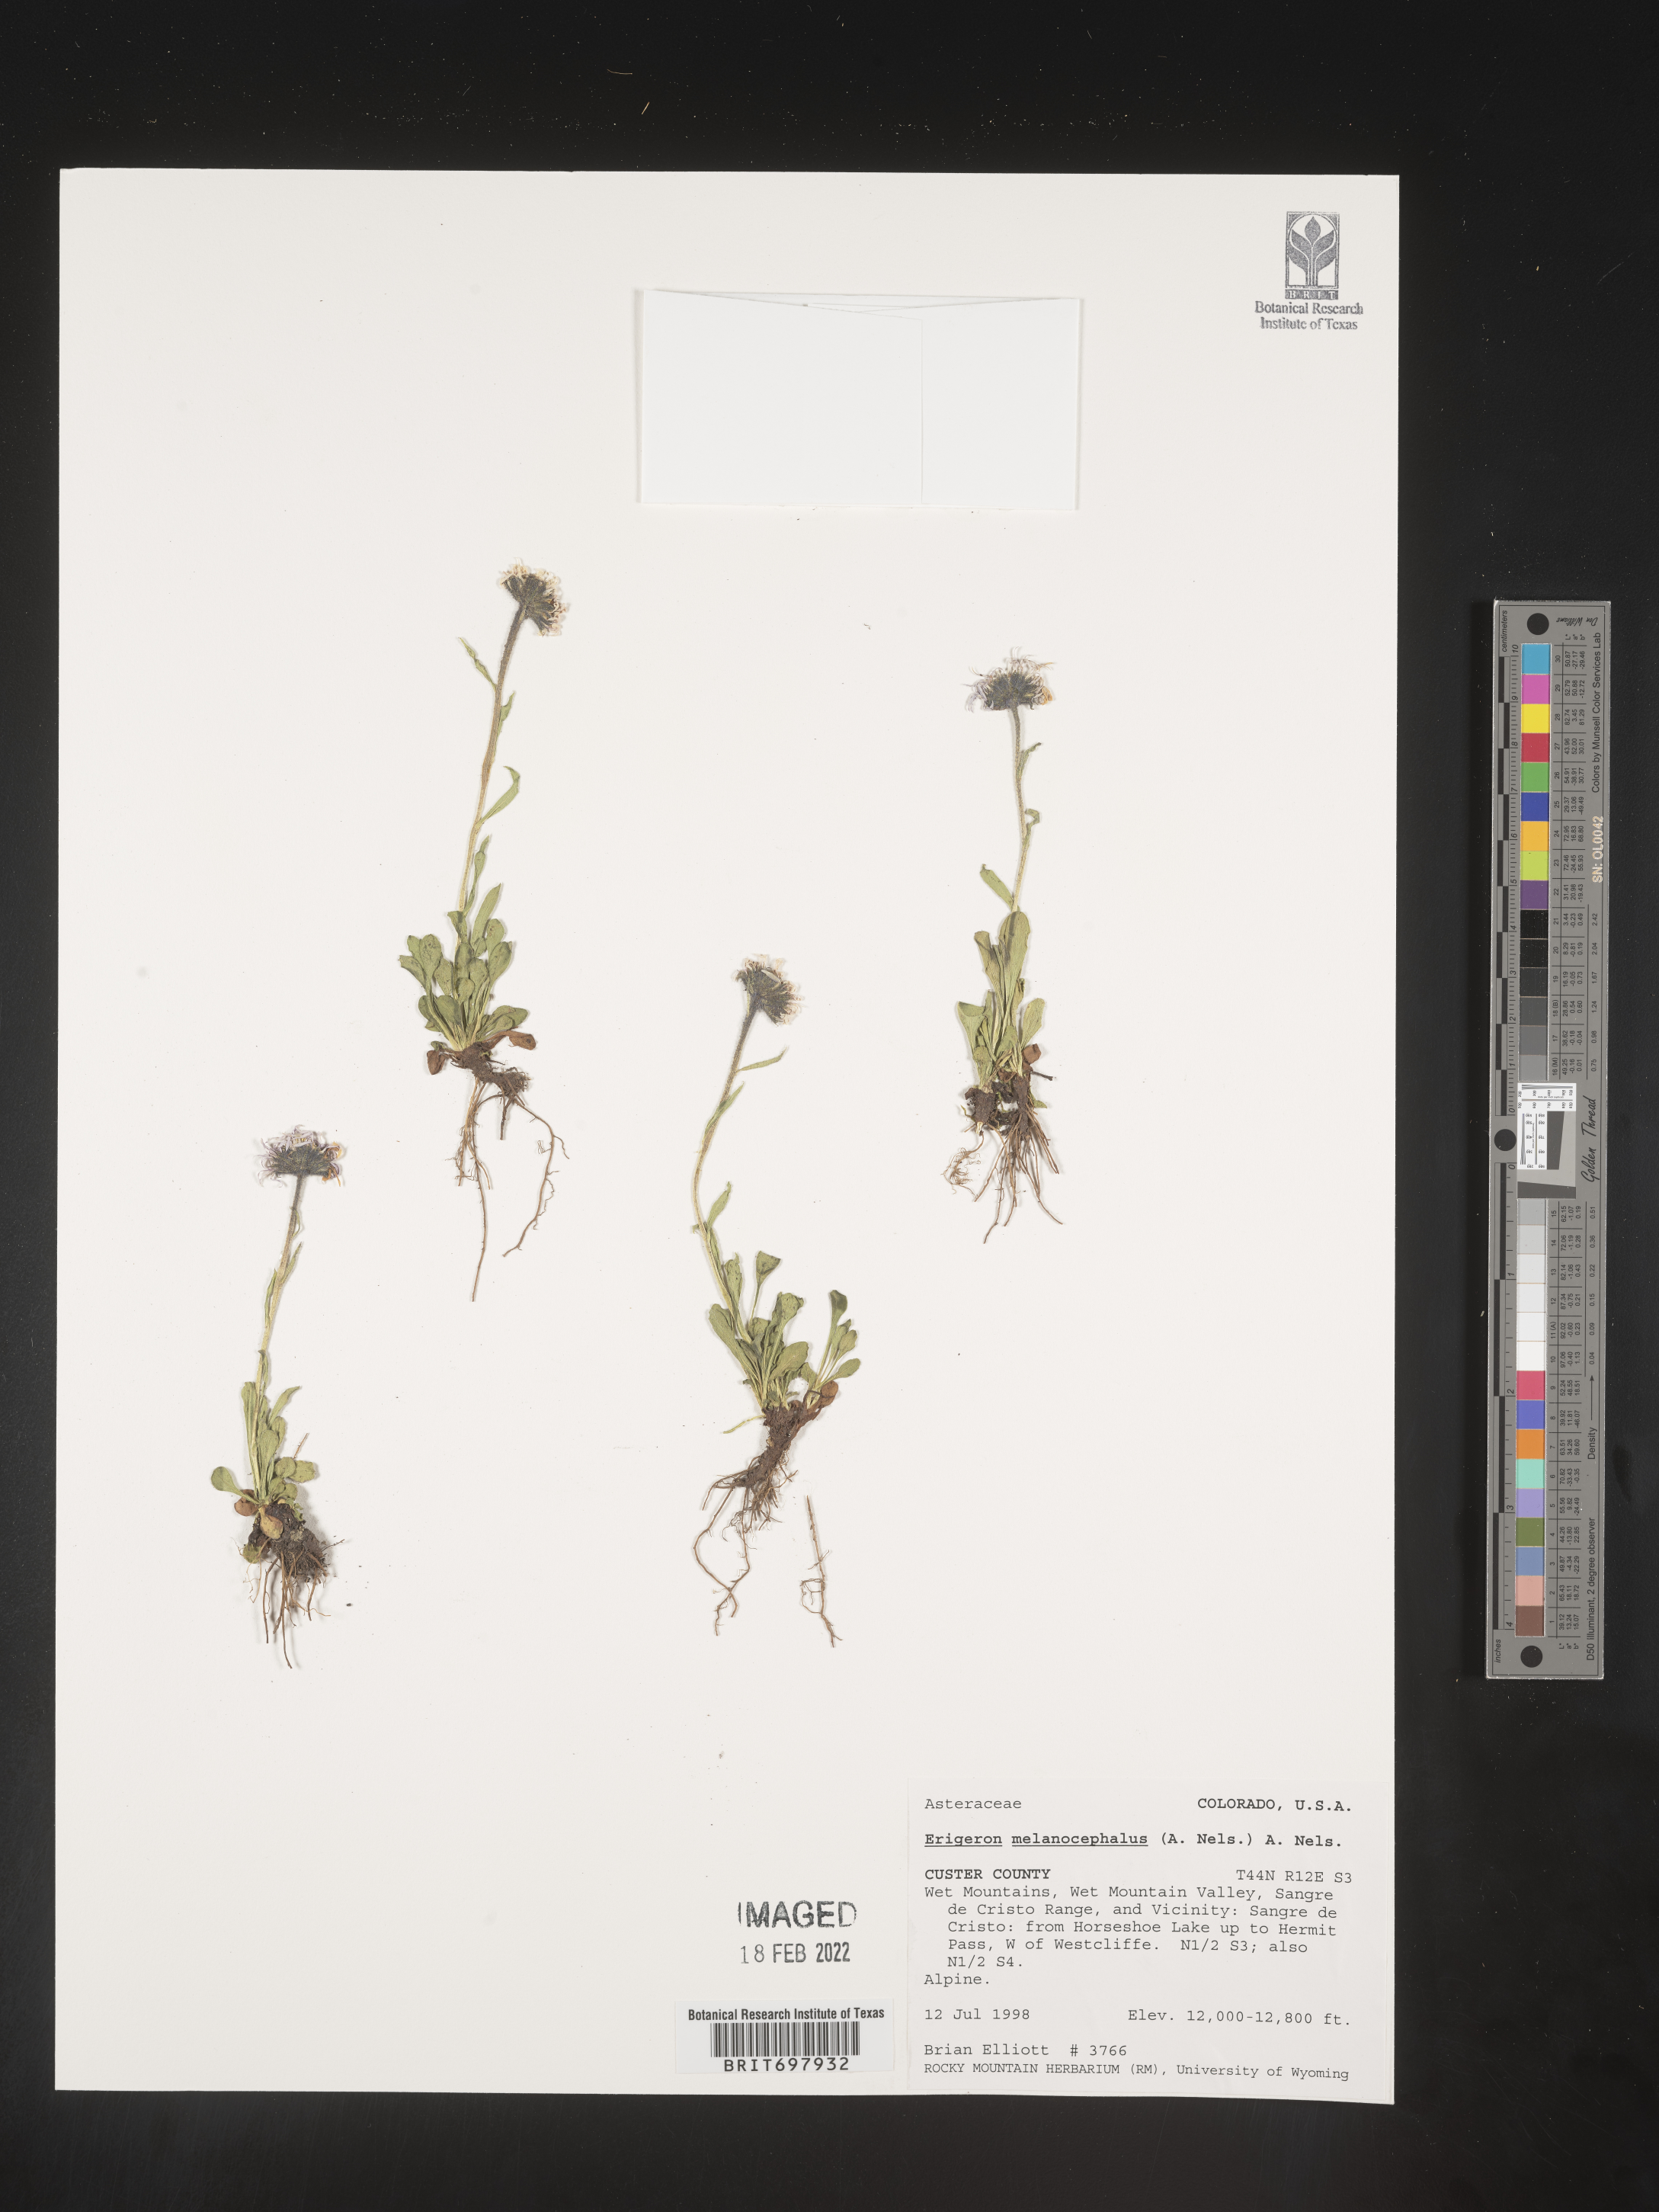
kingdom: Plantae
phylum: Tracheophyta
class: Magnoliopsida
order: Asterales
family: Asteraceae
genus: Erigeron
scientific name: Erigeron melanocephalus
